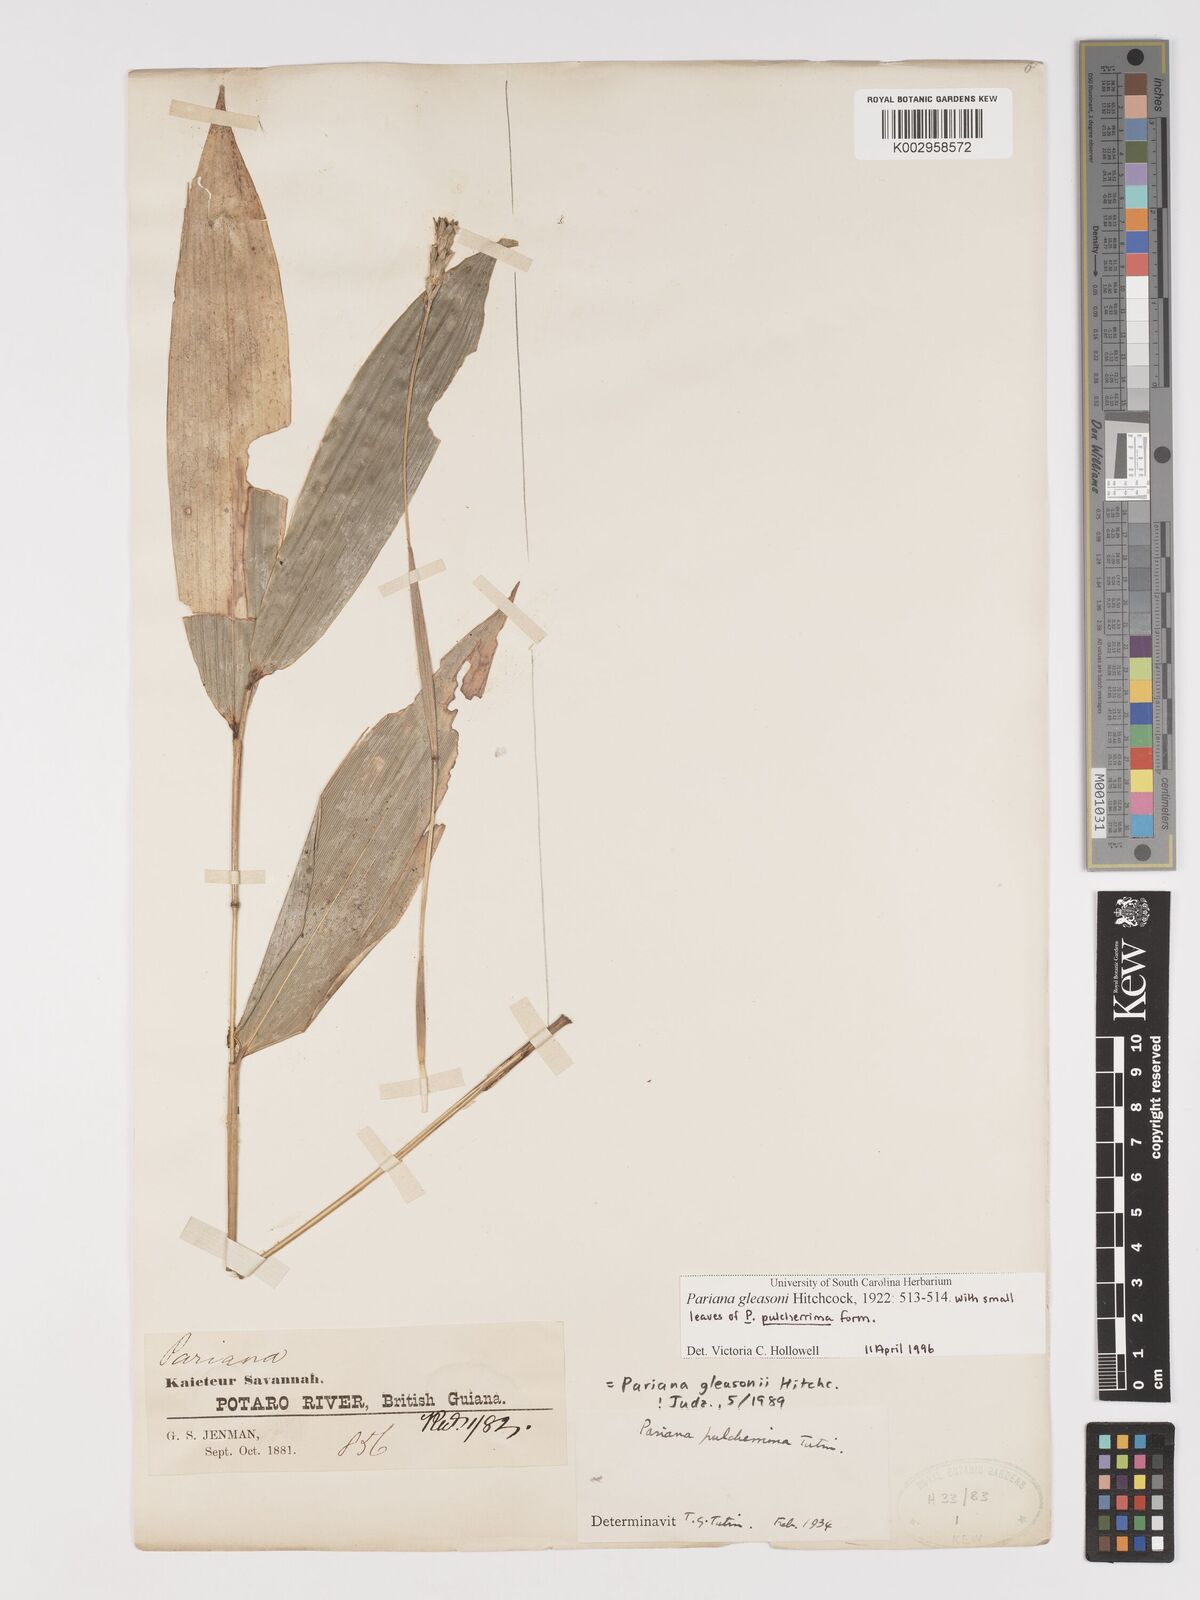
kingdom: Plantae
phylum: Tracheophyta
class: Liliopsida
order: Poales
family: Poaceae
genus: Pariana
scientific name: Pariana radiciflora
